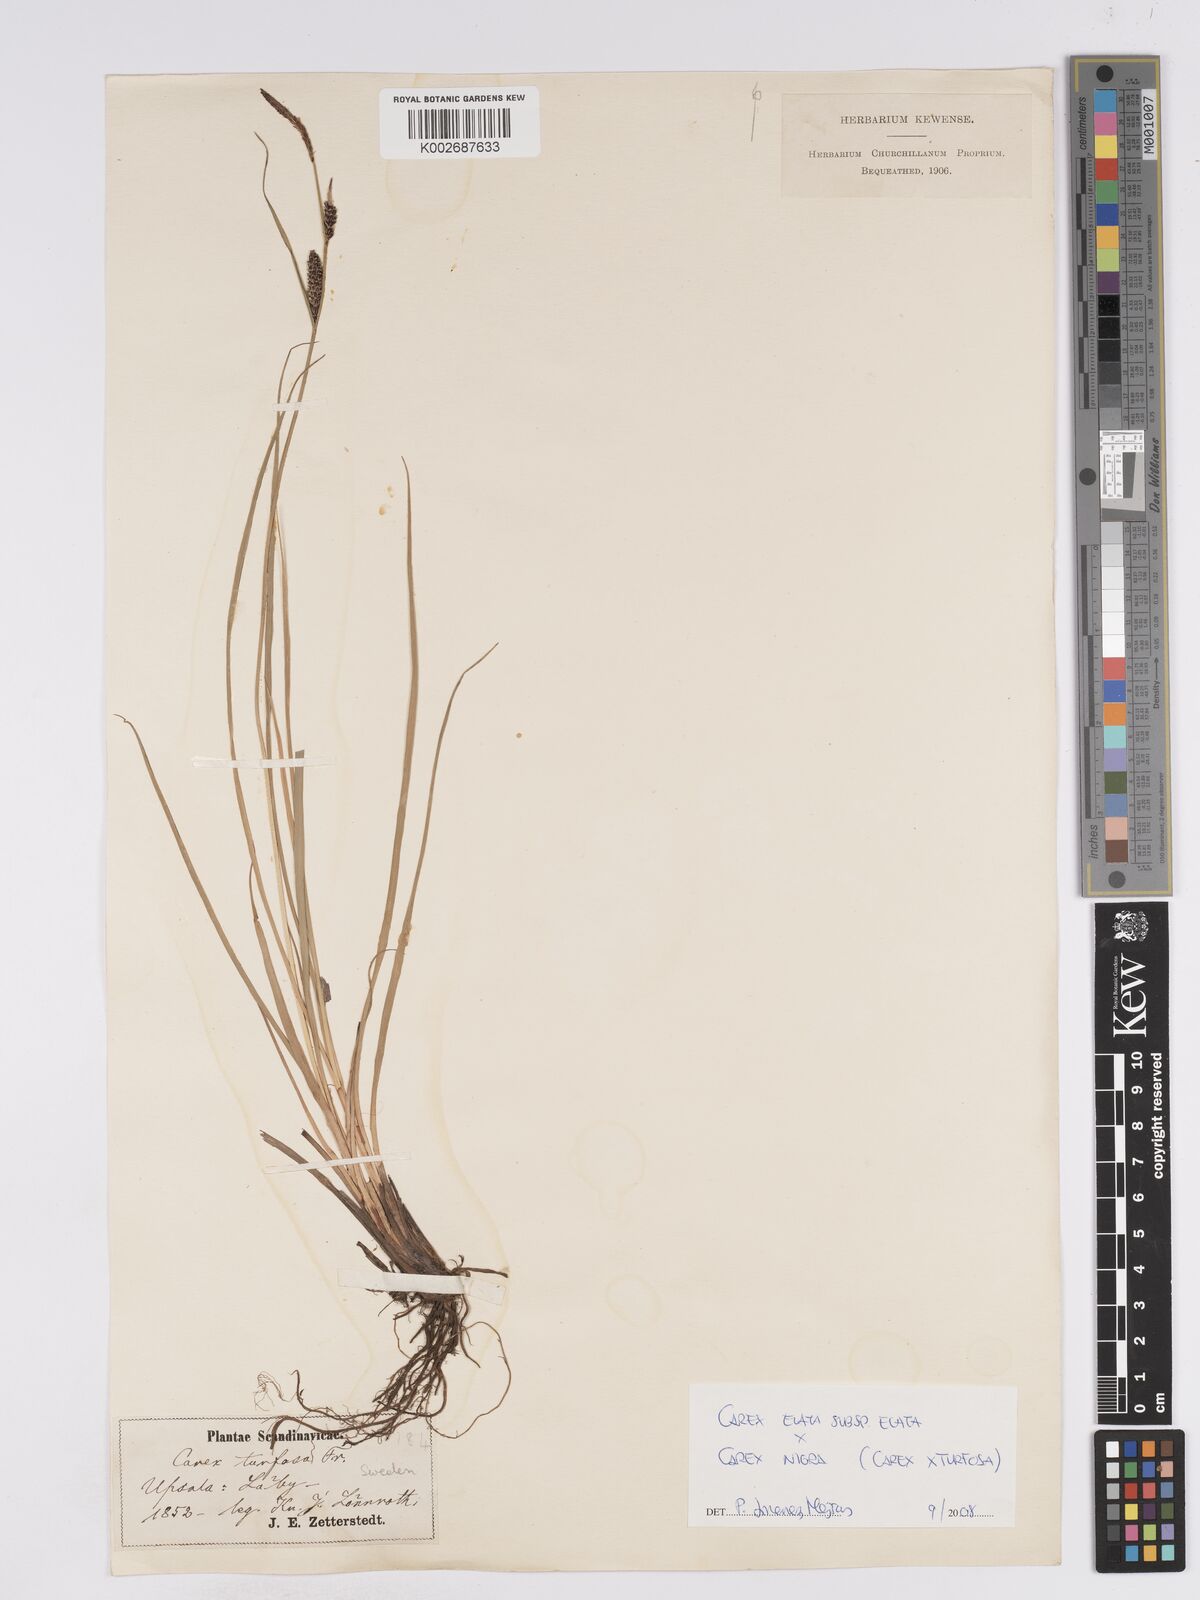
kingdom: Plantae
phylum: Tracheophyta
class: Liliopsida
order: Poales
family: Cyperaceae
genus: Carex
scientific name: Carex nigra
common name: Common sedge
